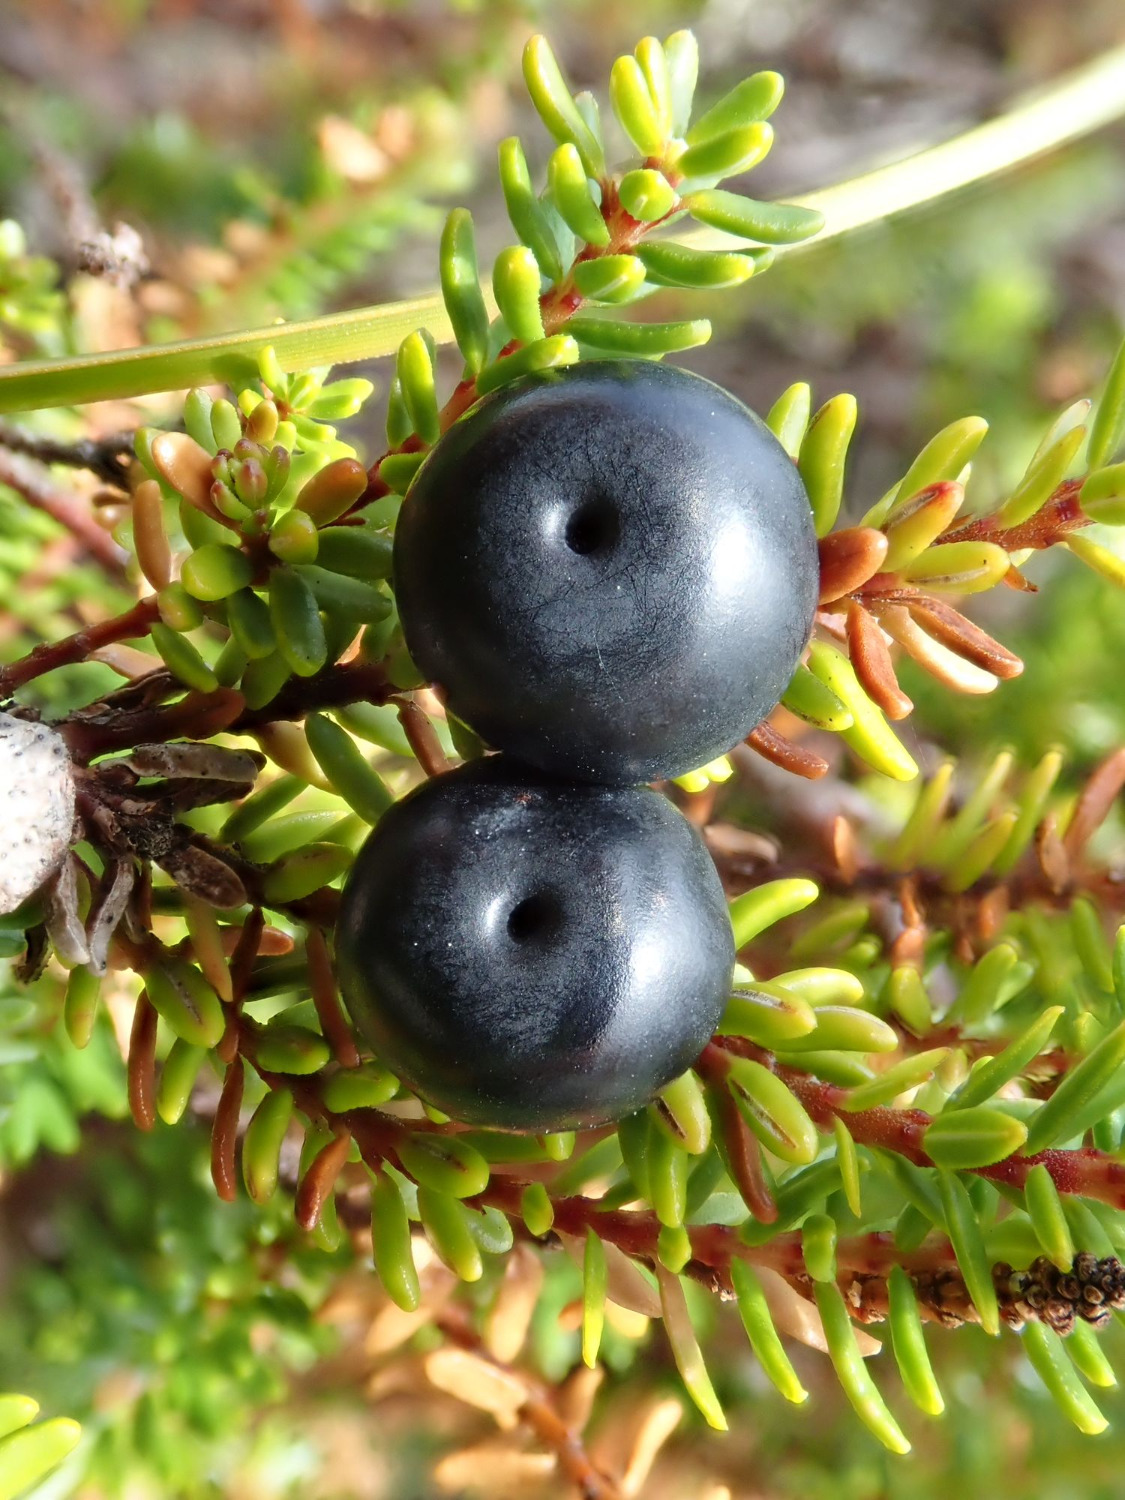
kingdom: Plantae
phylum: Tracheophyta
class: Magnoliopsida
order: Ericales
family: Ericaceae
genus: Empetrum
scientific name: Empetrum nigrum
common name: Revling
